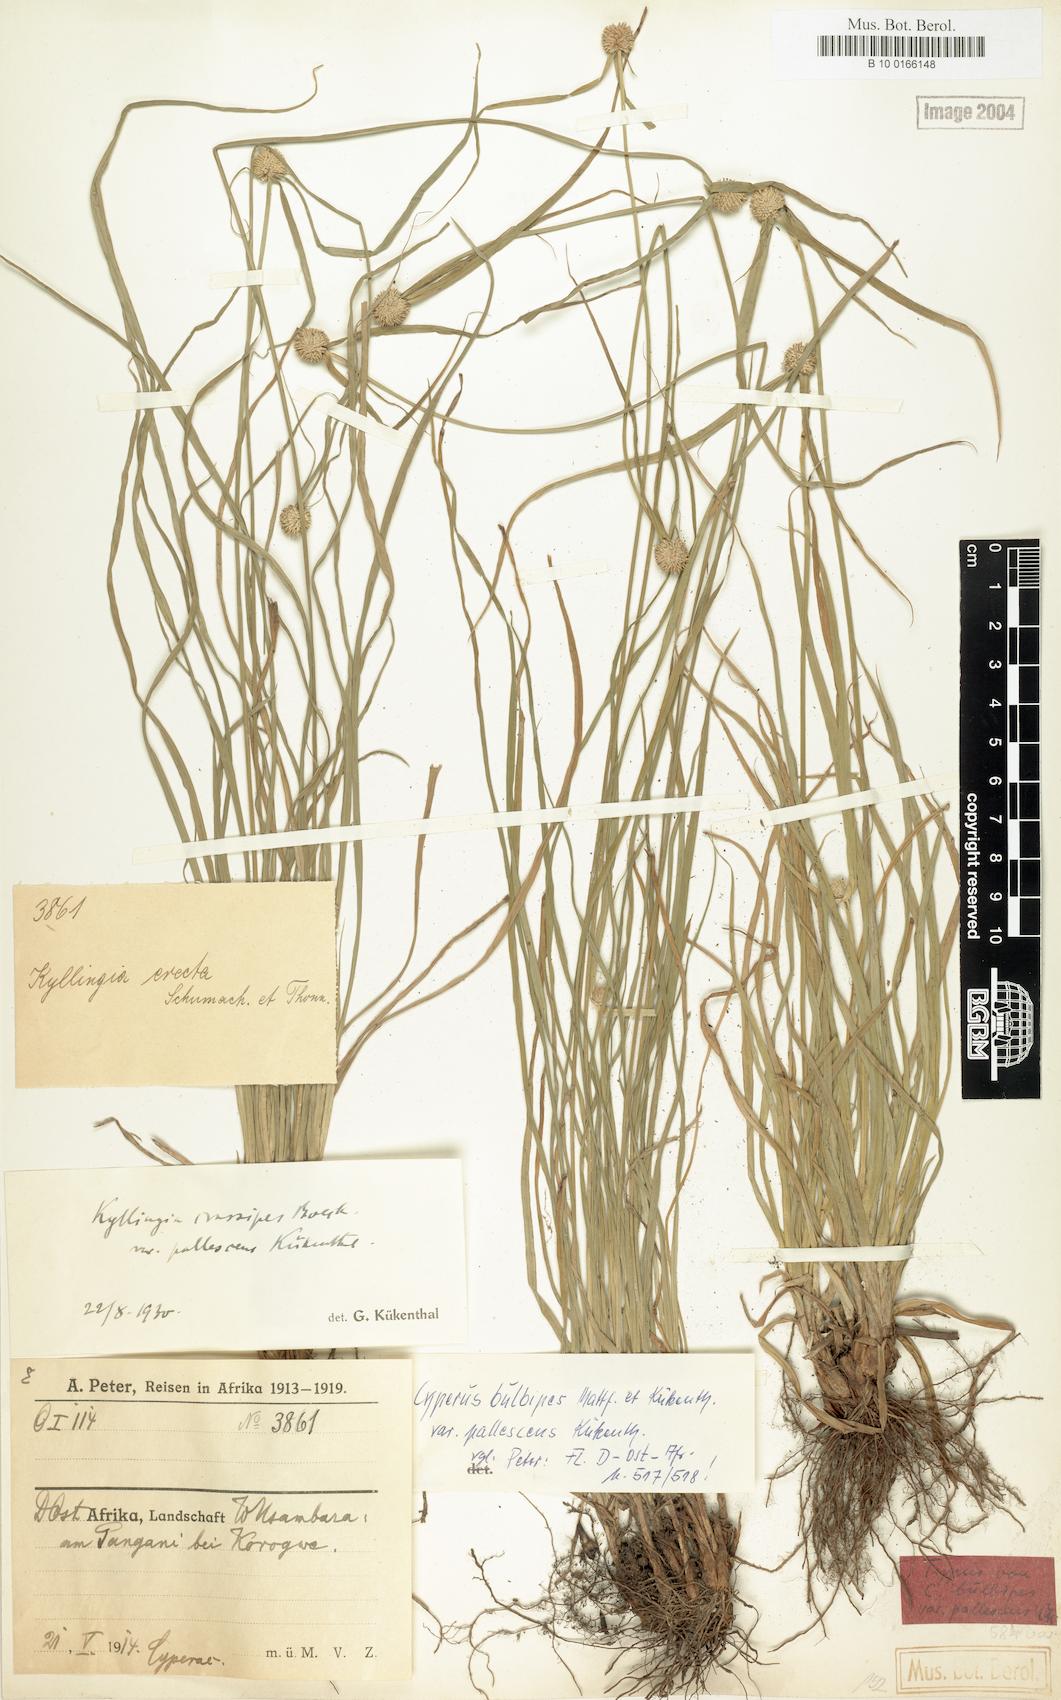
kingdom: Plantae
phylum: Tracheophyta
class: Liliopsida
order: Poales
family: Cyperaceae
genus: Cyperus
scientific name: Cyperus bulbipes
